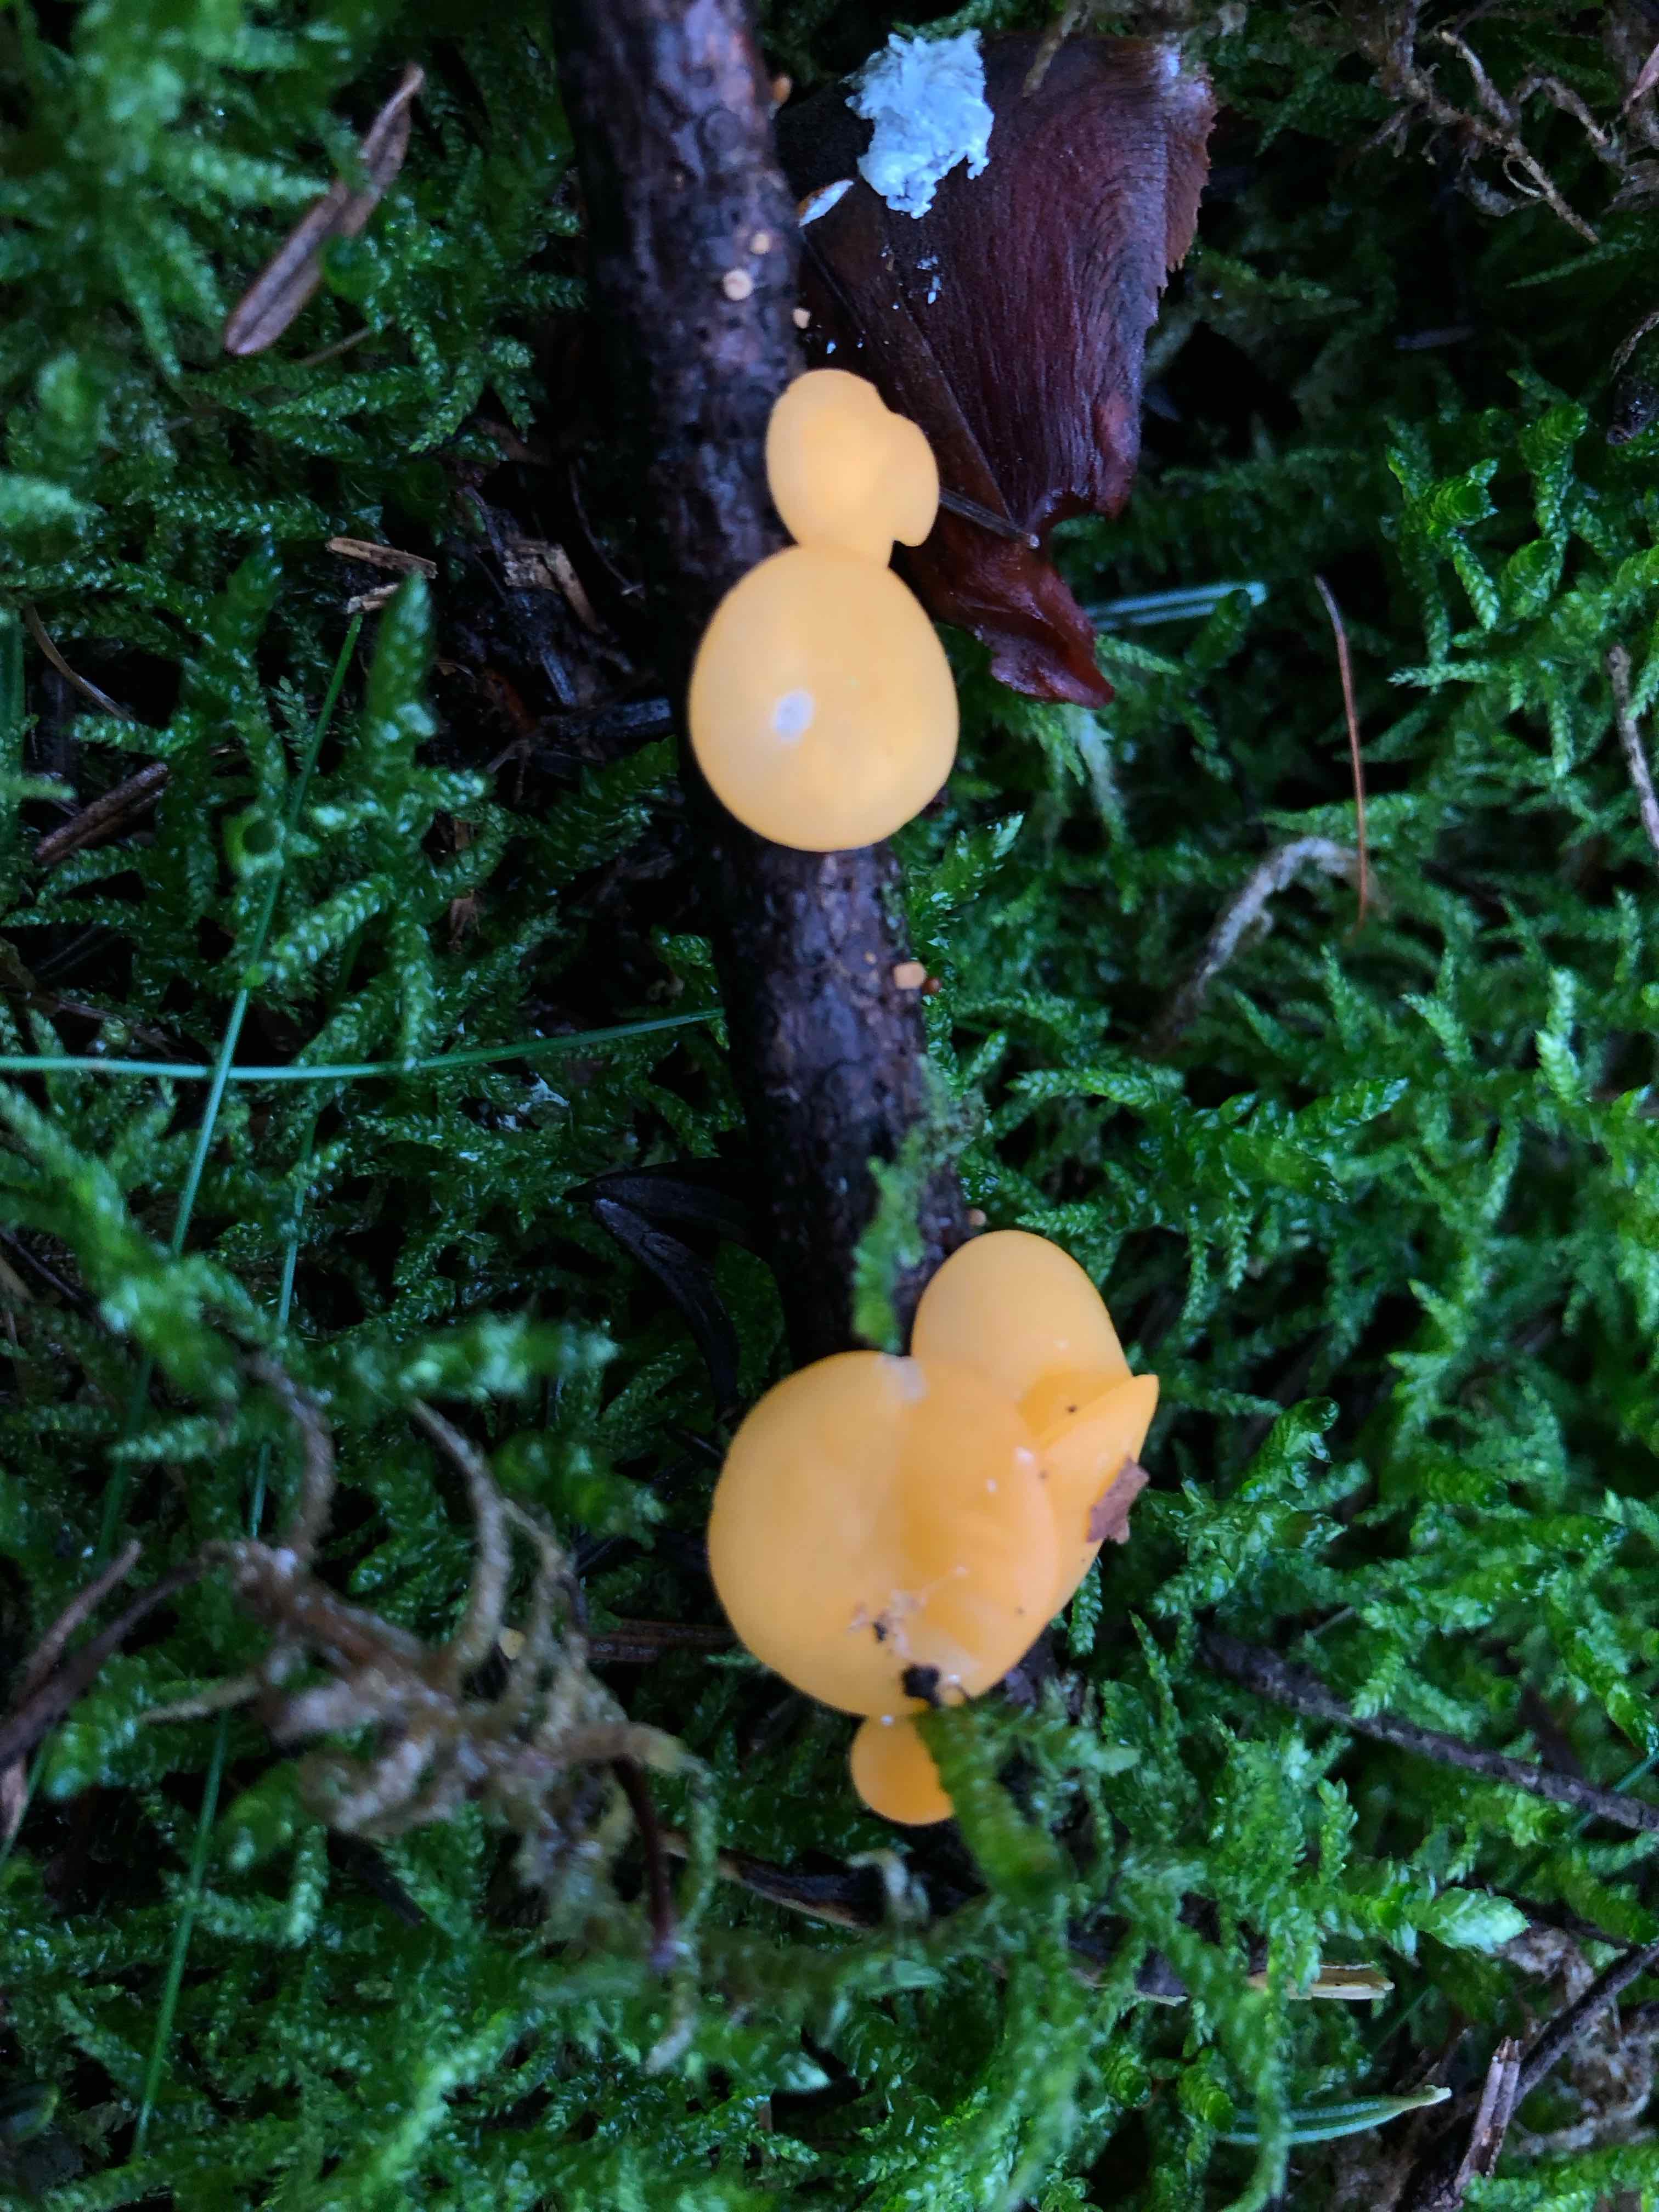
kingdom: Fungi
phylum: Ascomycota
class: Pezizomycetes
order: Pezizales
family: Sarcoscyphaceae
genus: Pithya
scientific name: Pithya vulgaris
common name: stor dukatbæger
